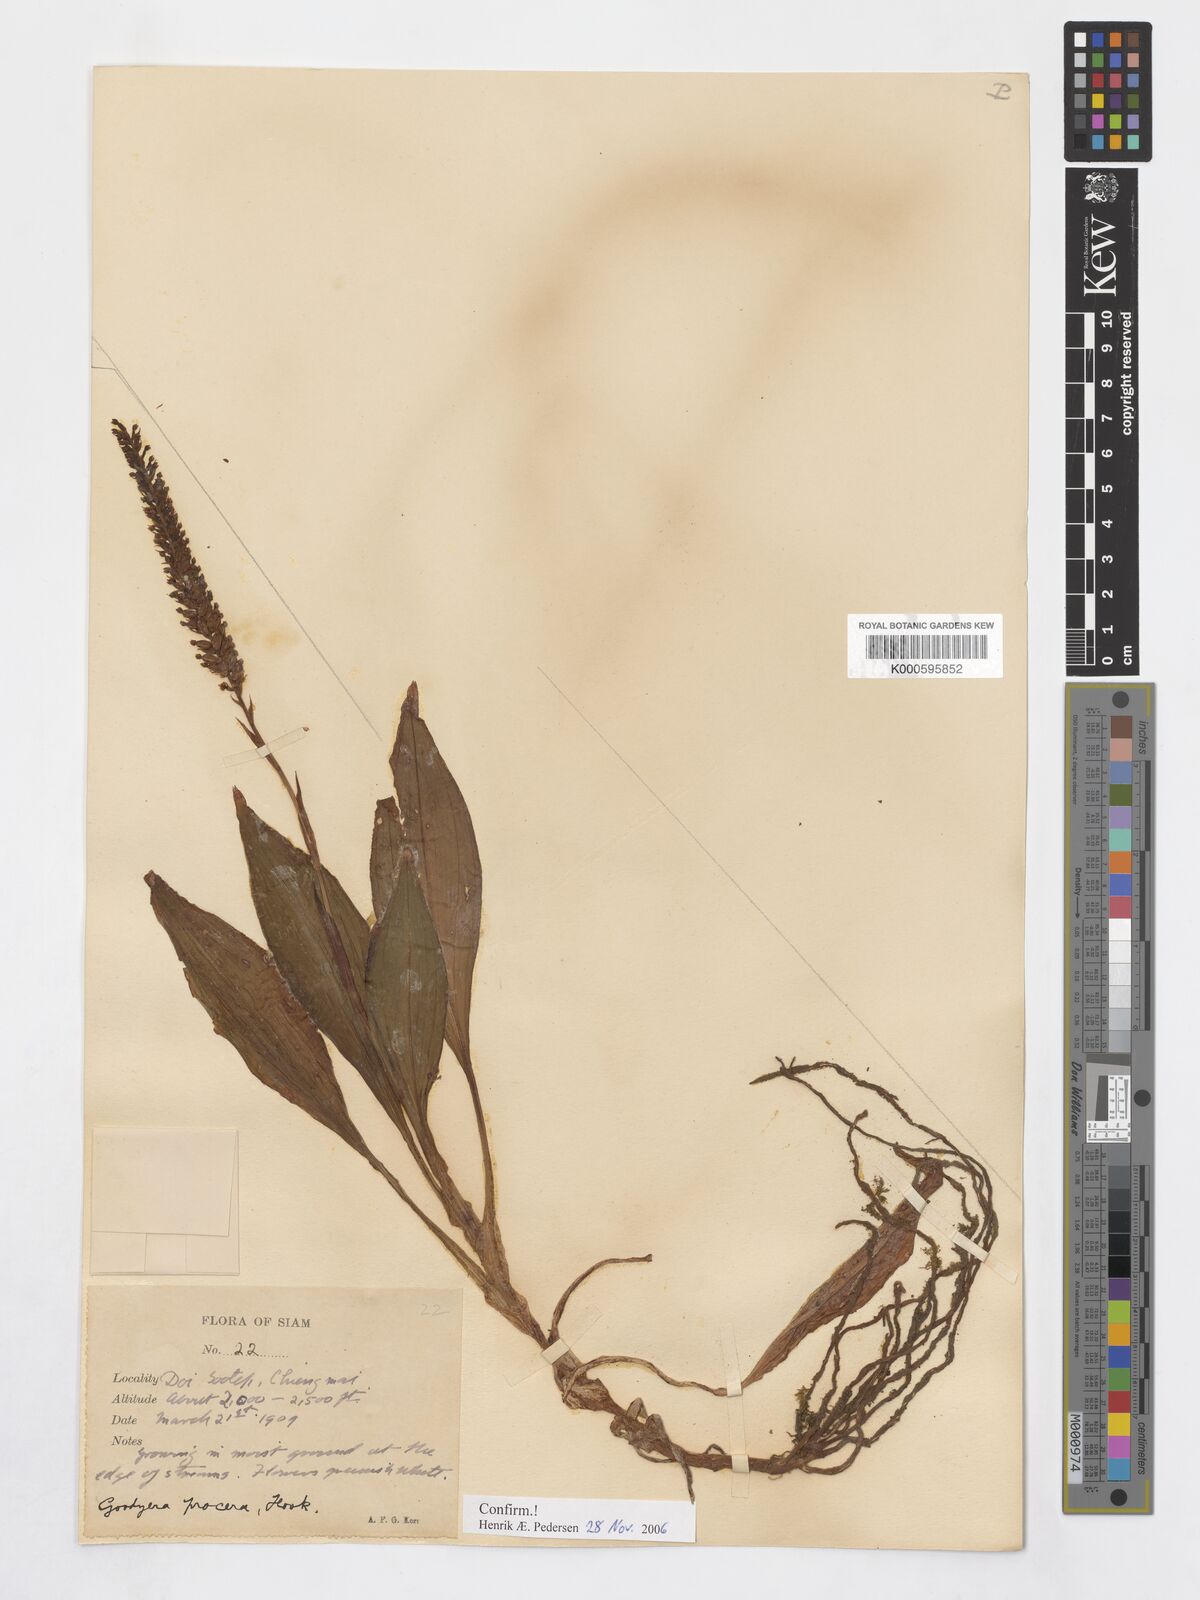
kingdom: Plantae
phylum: Tracheophyta
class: Liliopsida
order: Asparagales
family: Orchidaceae
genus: Goodyera
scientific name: Goodyera
